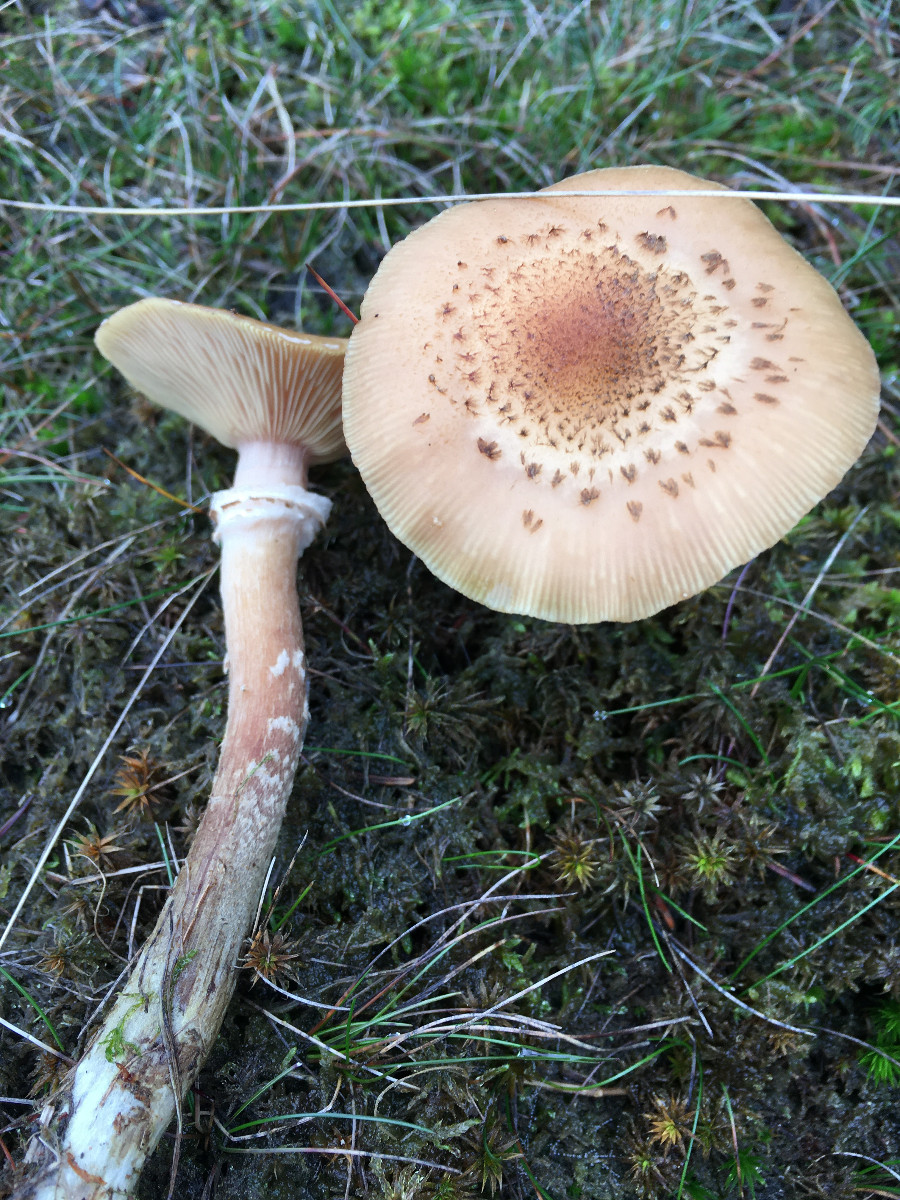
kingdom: Fungi
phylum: Basidiomycota
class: Agaricomycetes
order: Agaricales
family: Physalacriaceae
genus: Armillaria
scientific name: Armillaria ostoyae
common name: mørk honningsvamp
